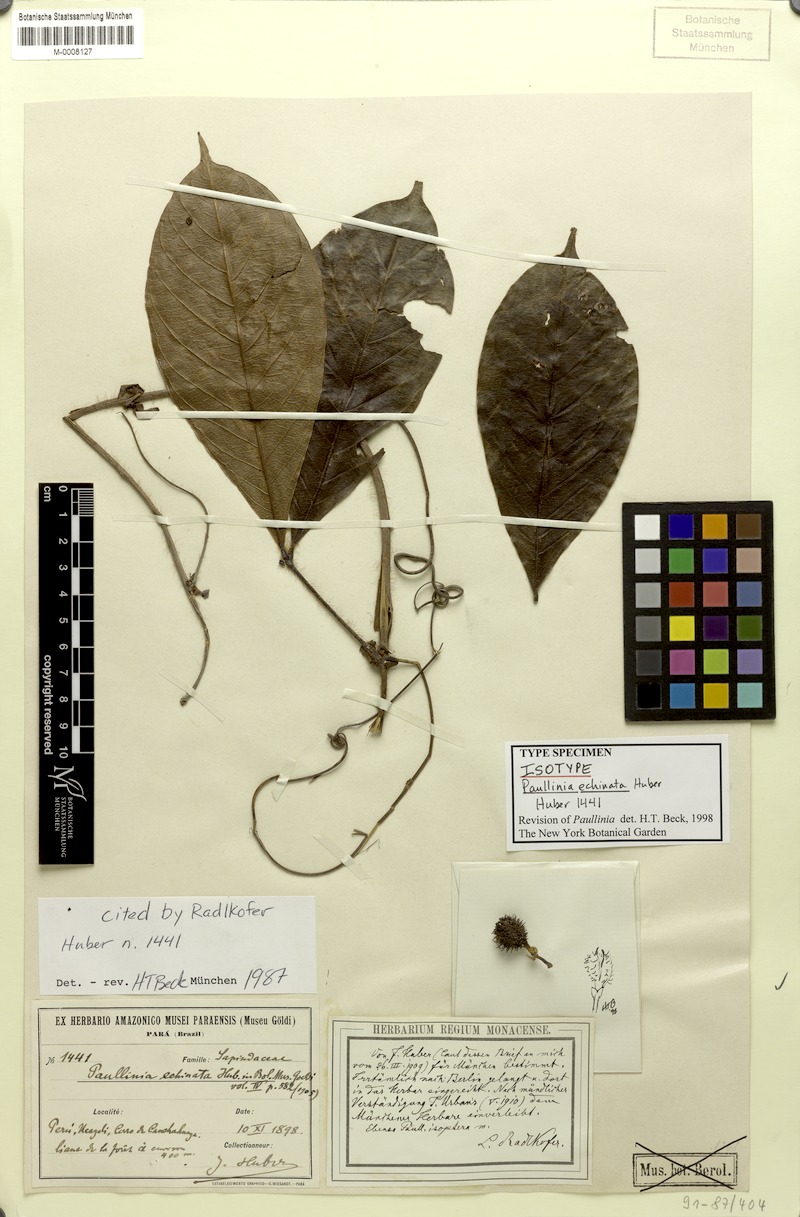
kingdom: Plantae
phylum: Tracheophyta
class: Magnoliopsida
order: Sapindales
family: Sapindaceae
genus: Paullinia
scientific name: Paullinia echinata
